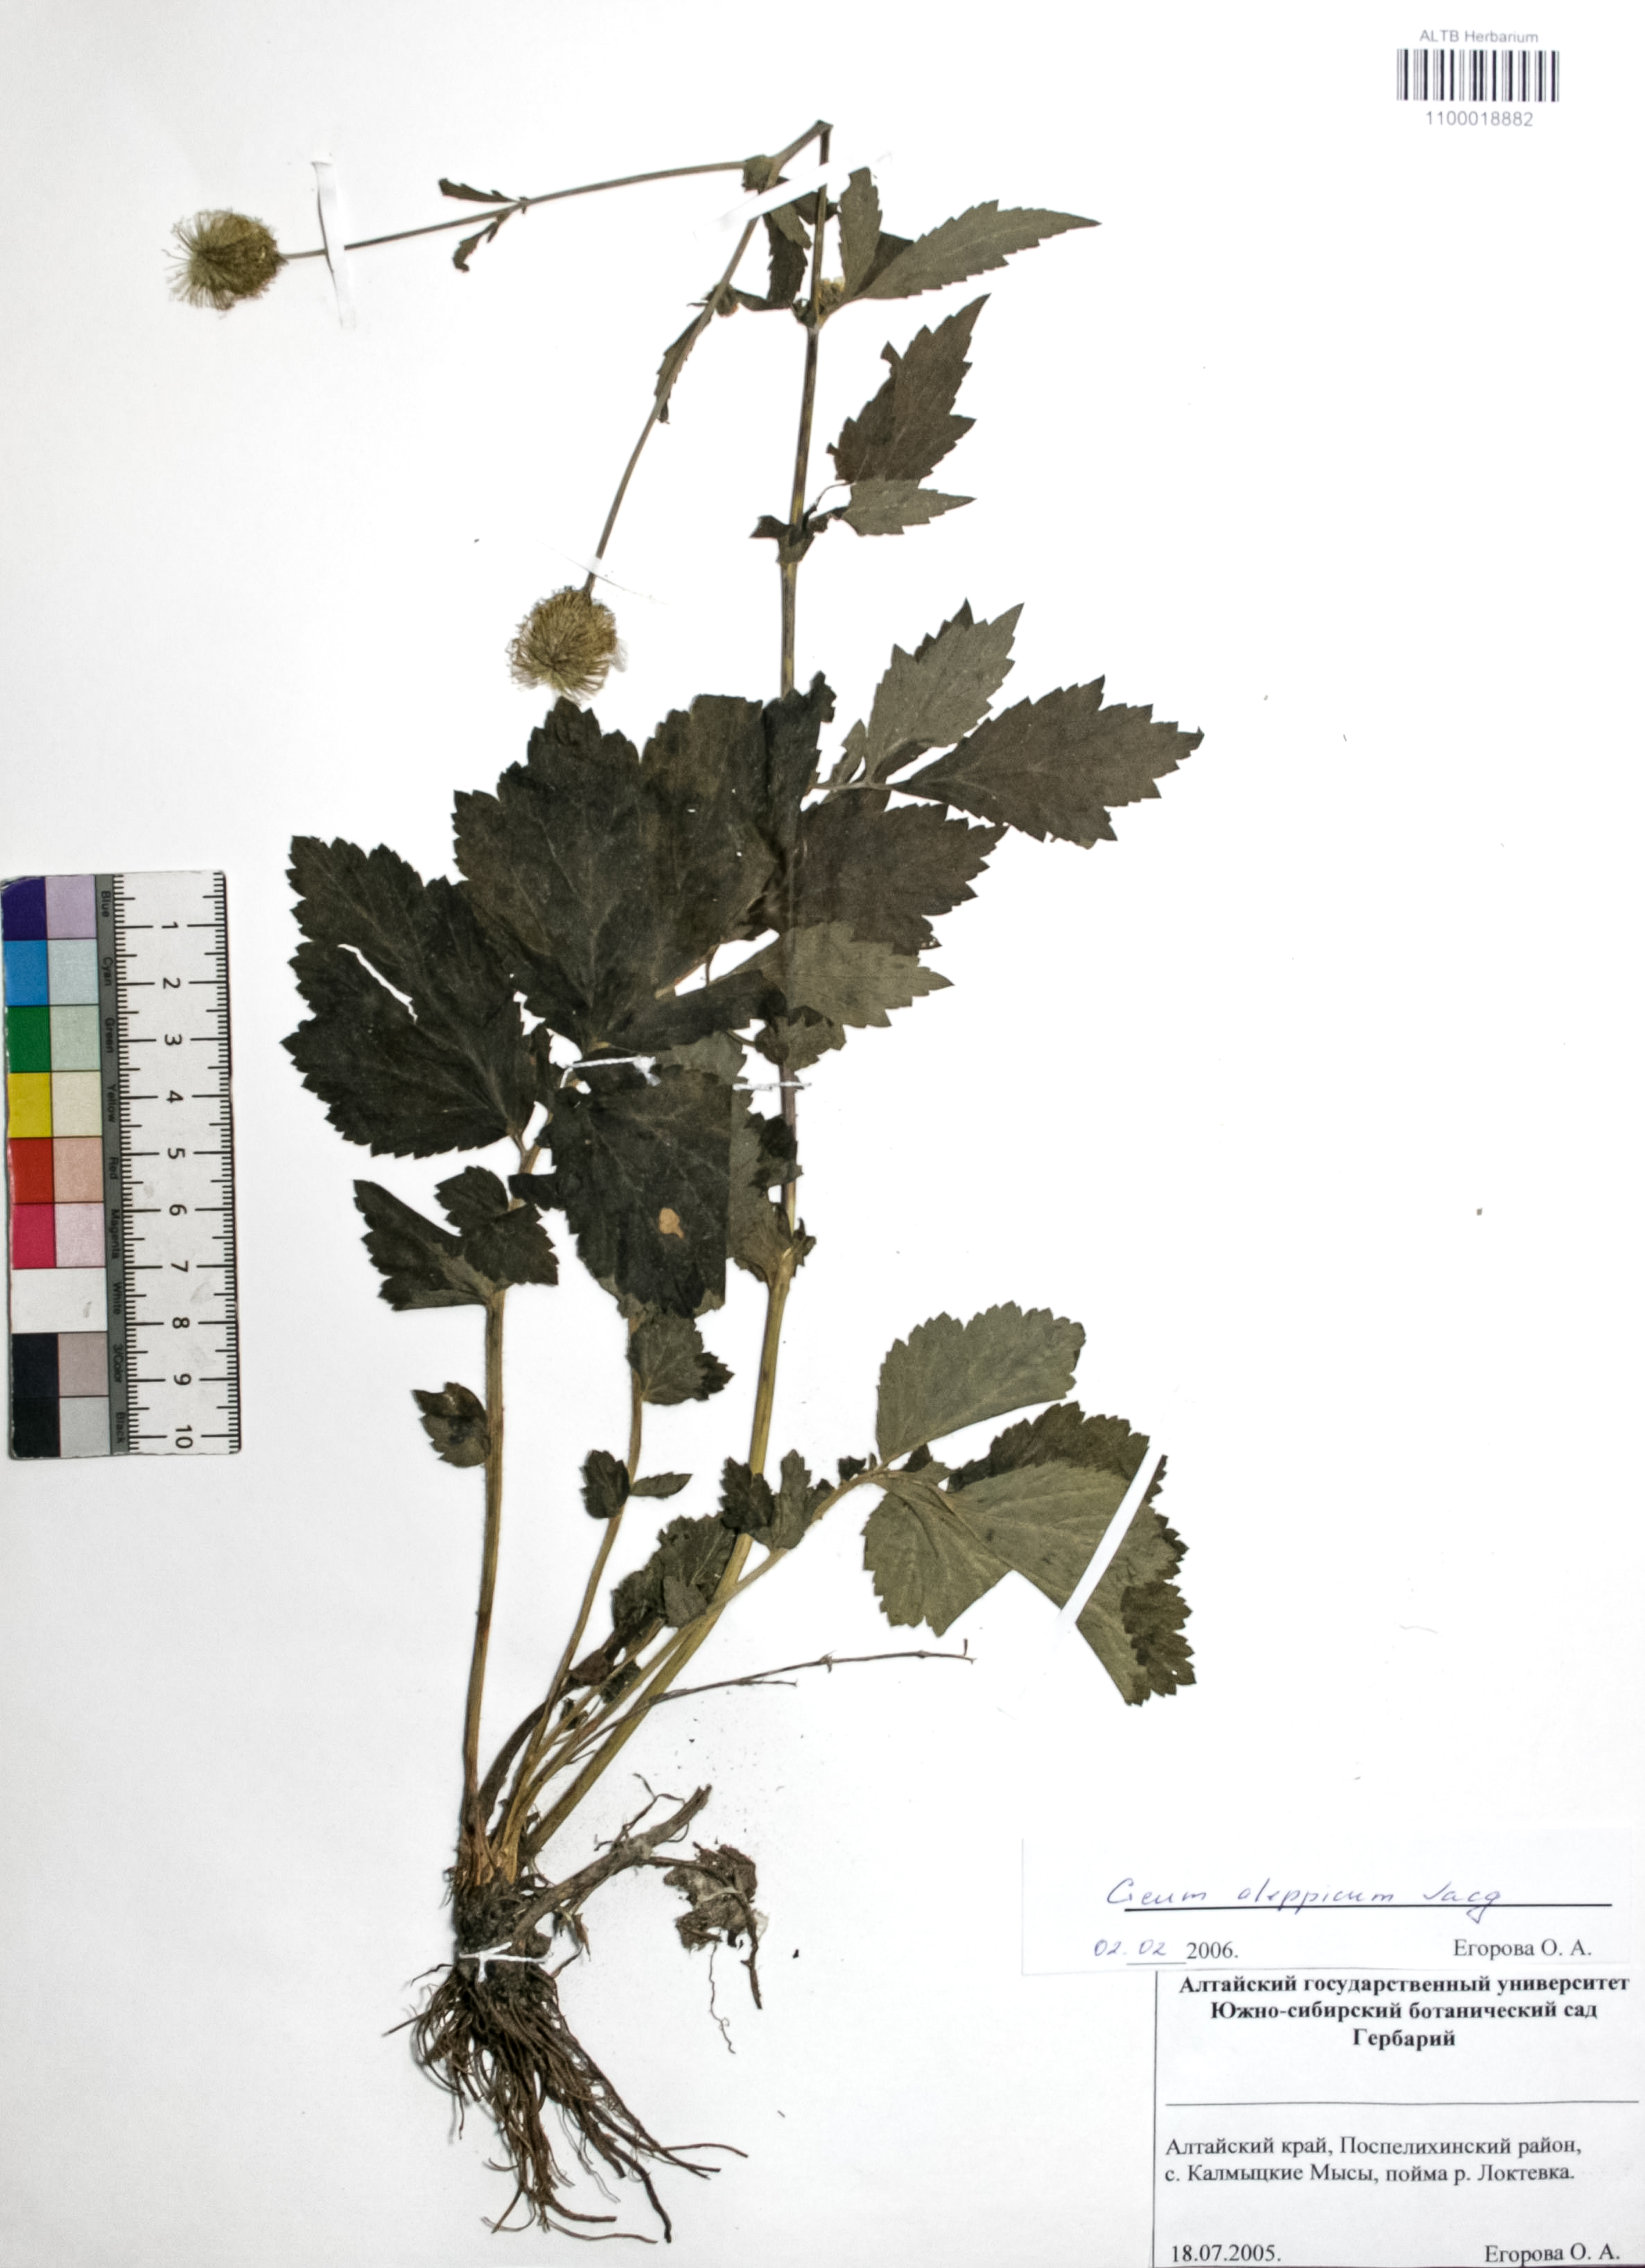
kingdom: Plantae
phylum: Tracheophyta
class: Magnoliopsida
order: Rosales
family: Rosaceae
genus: Geum
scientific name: Geum aleppicum
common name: Yellow avens
